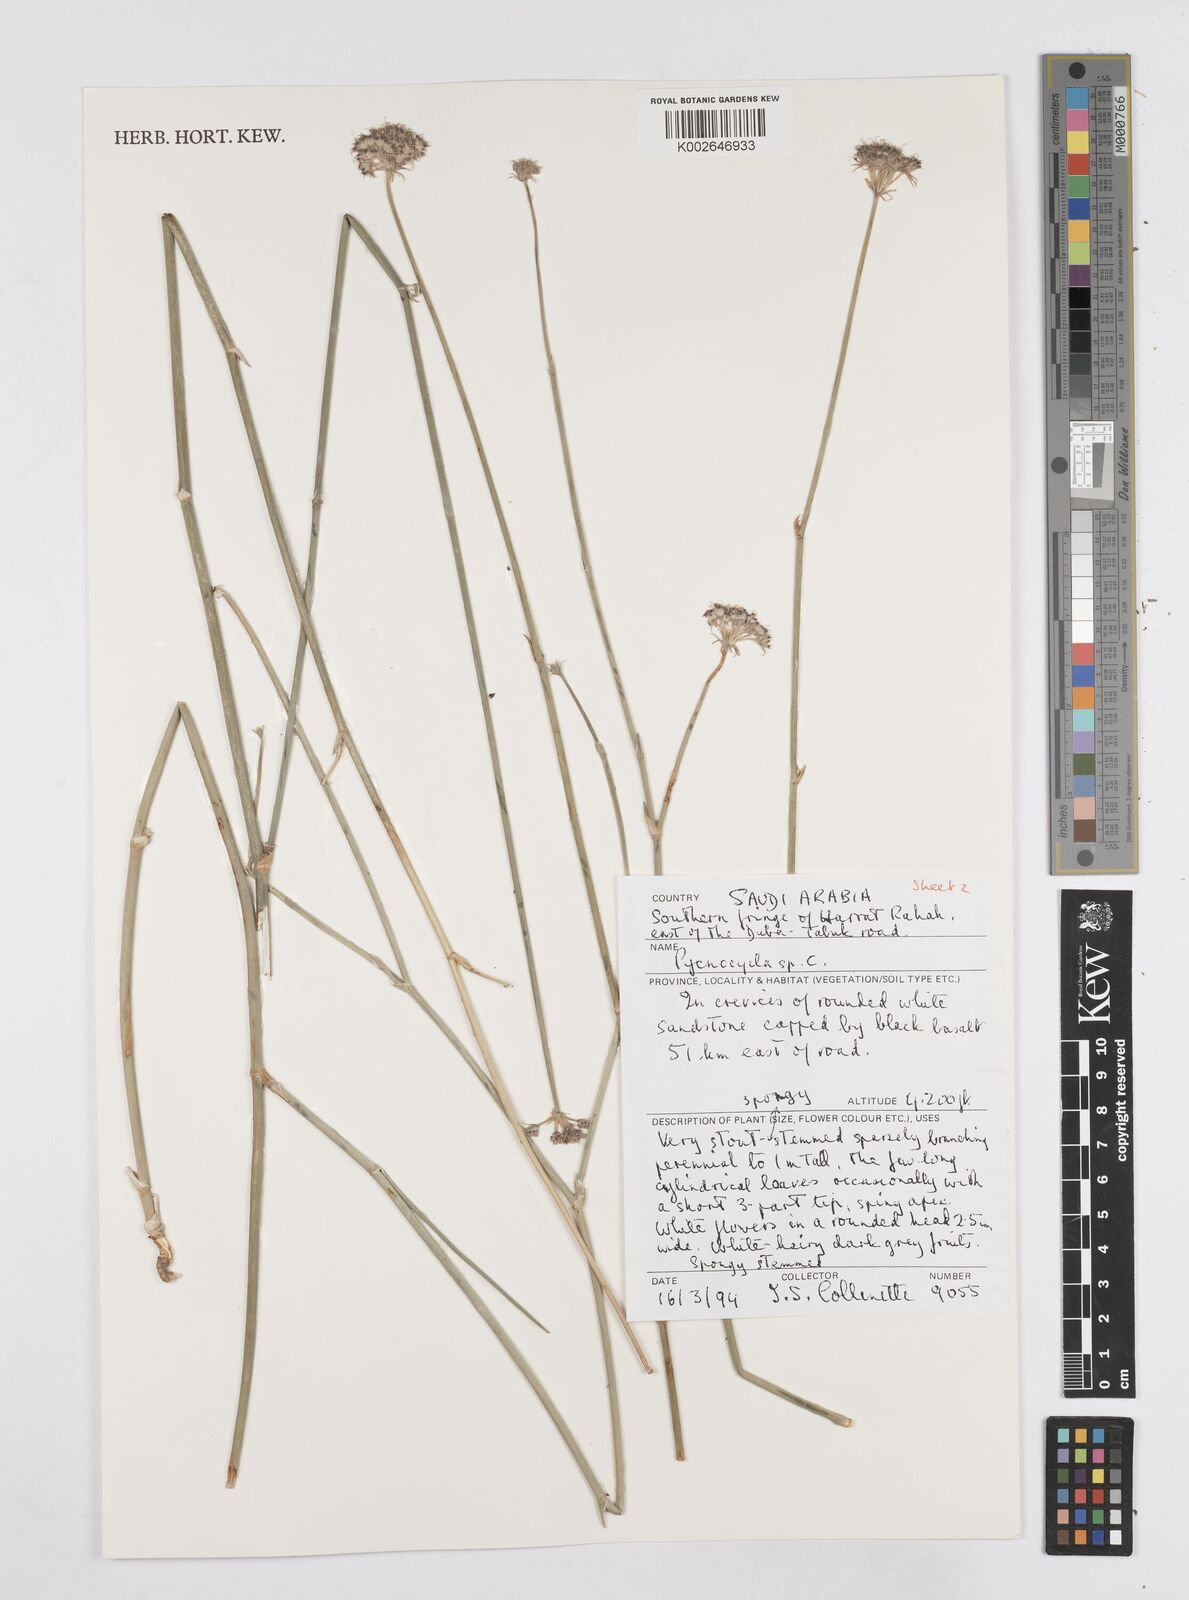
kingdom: Plantae
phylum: Tracheophyta
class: Magnoliopsida
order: Apiales
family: Apiaceae
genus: Pycnocycla
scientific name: Pycnocycla
